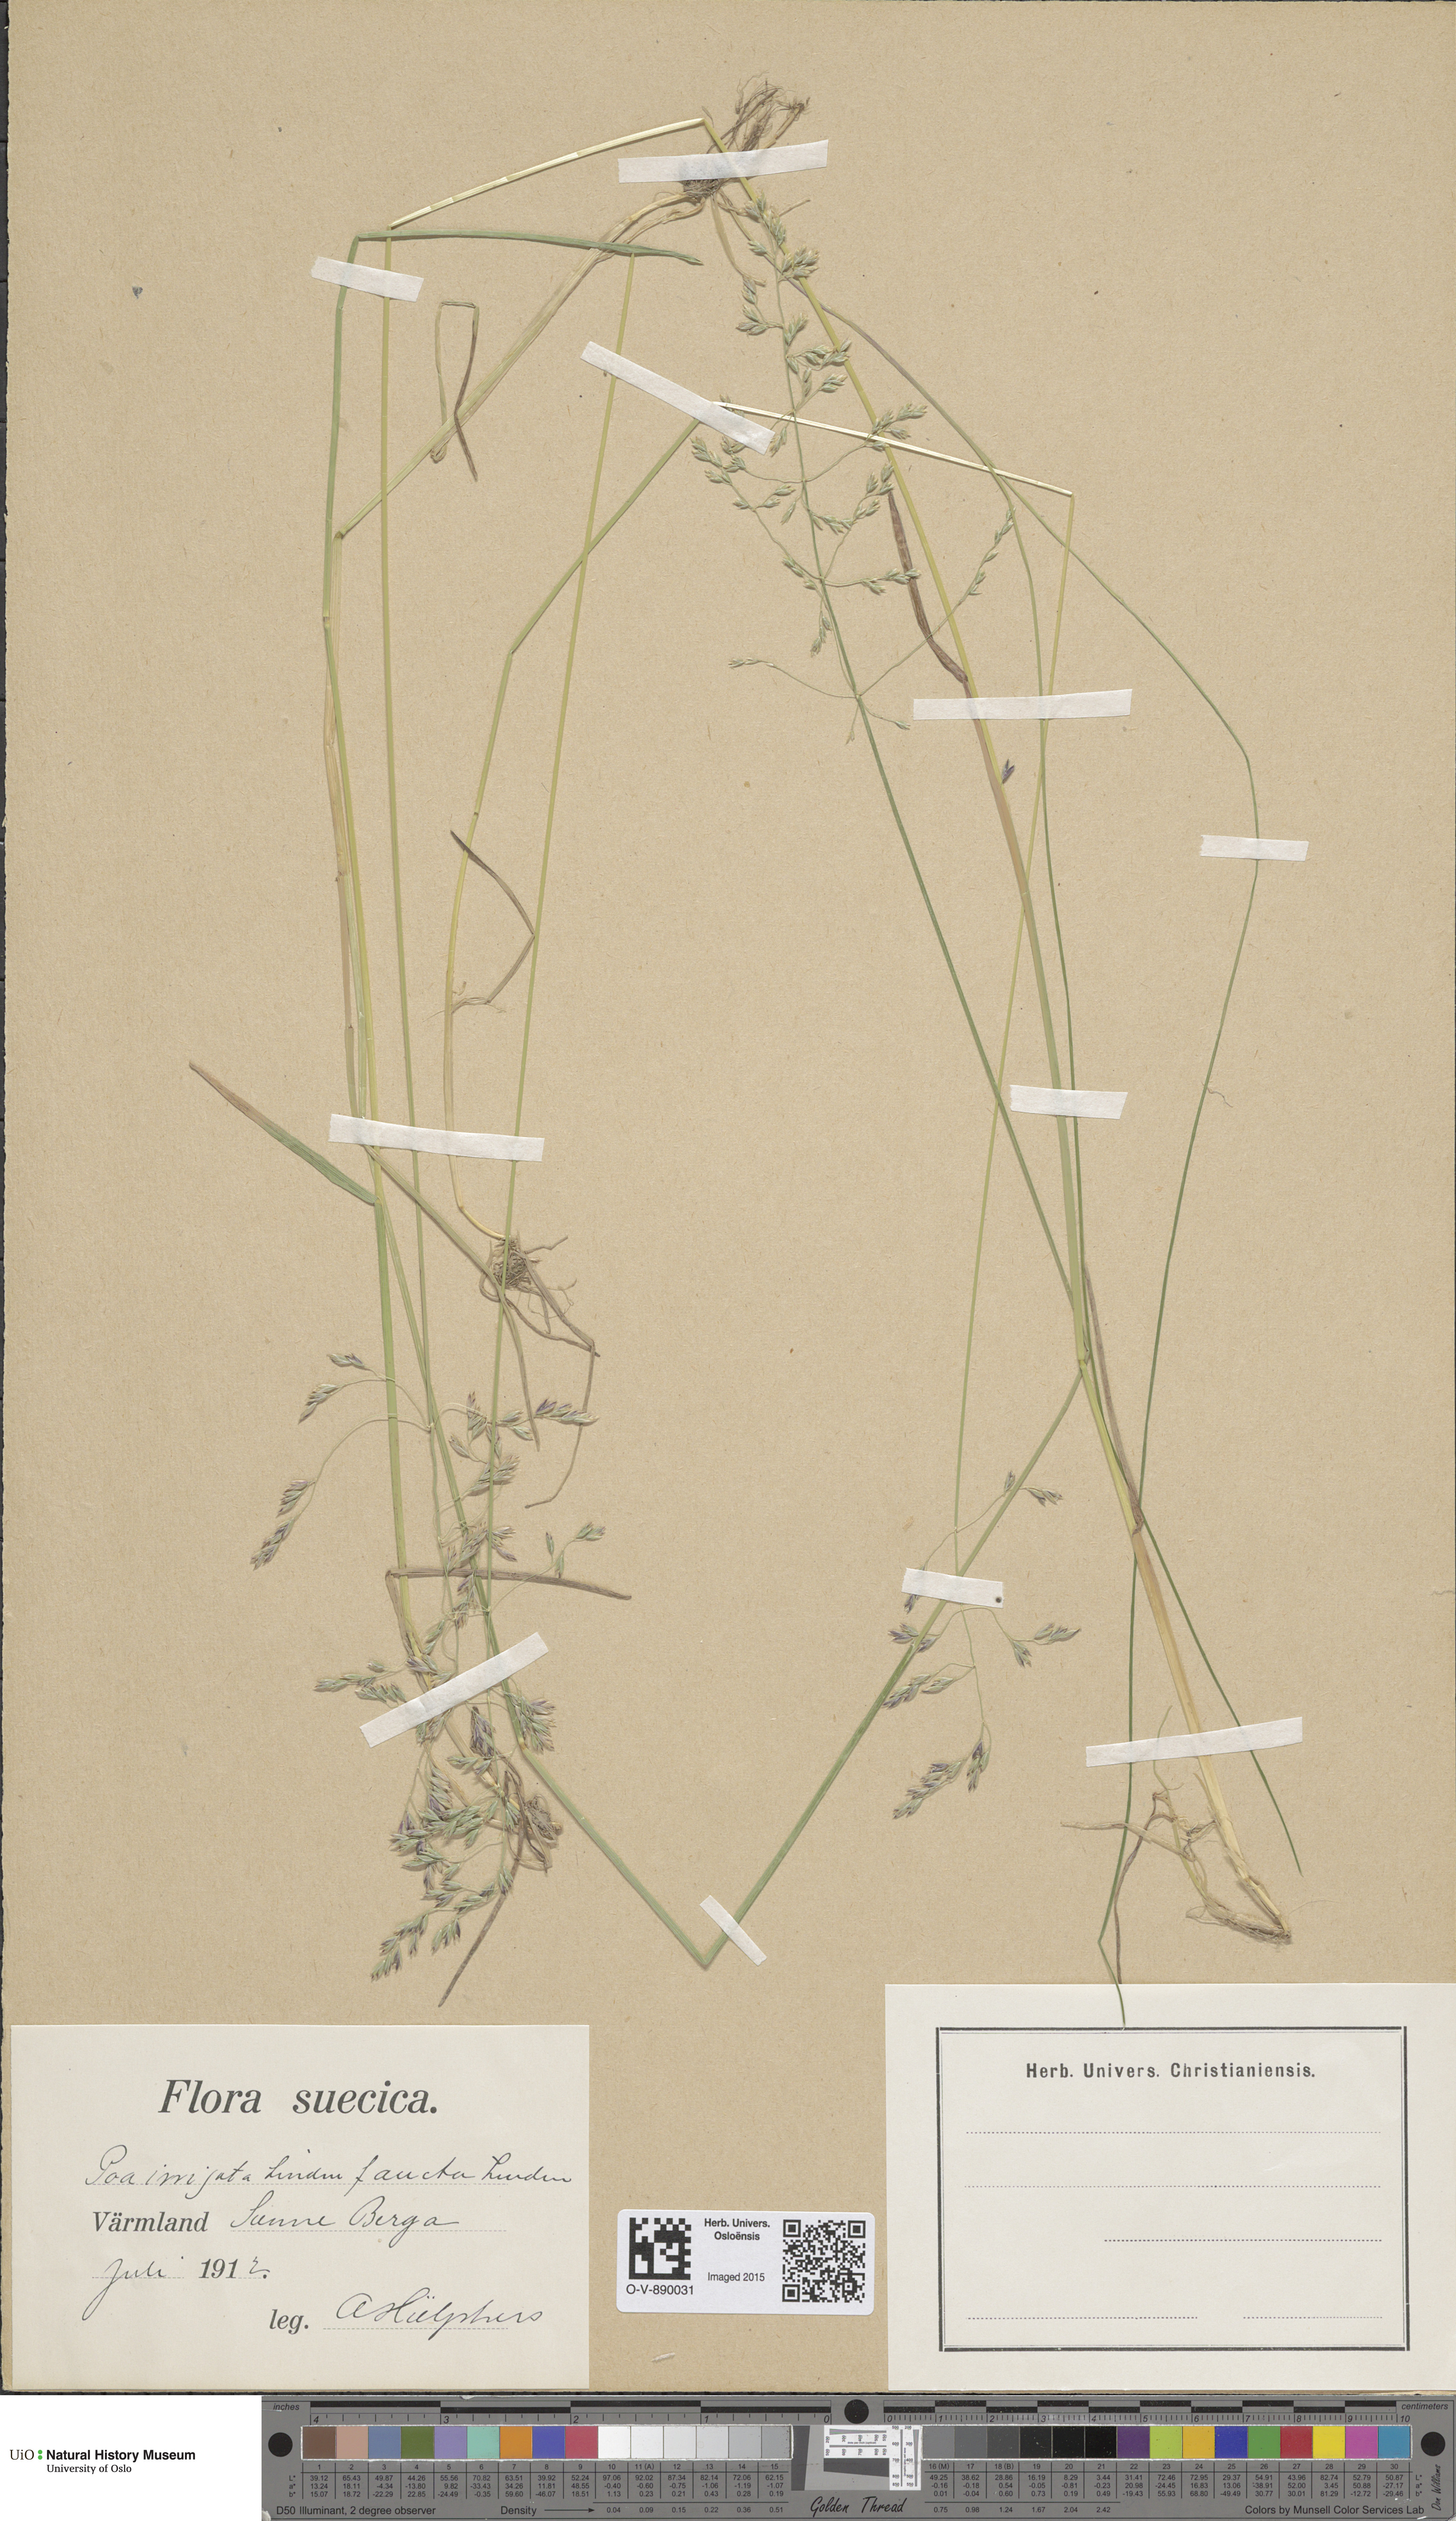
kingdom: Plantae
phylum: Tracheophyta
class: Liliopsida
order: Poales
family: Poaceae
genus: Poa
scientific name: Poa humilis
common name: Spreading meadow-grass
